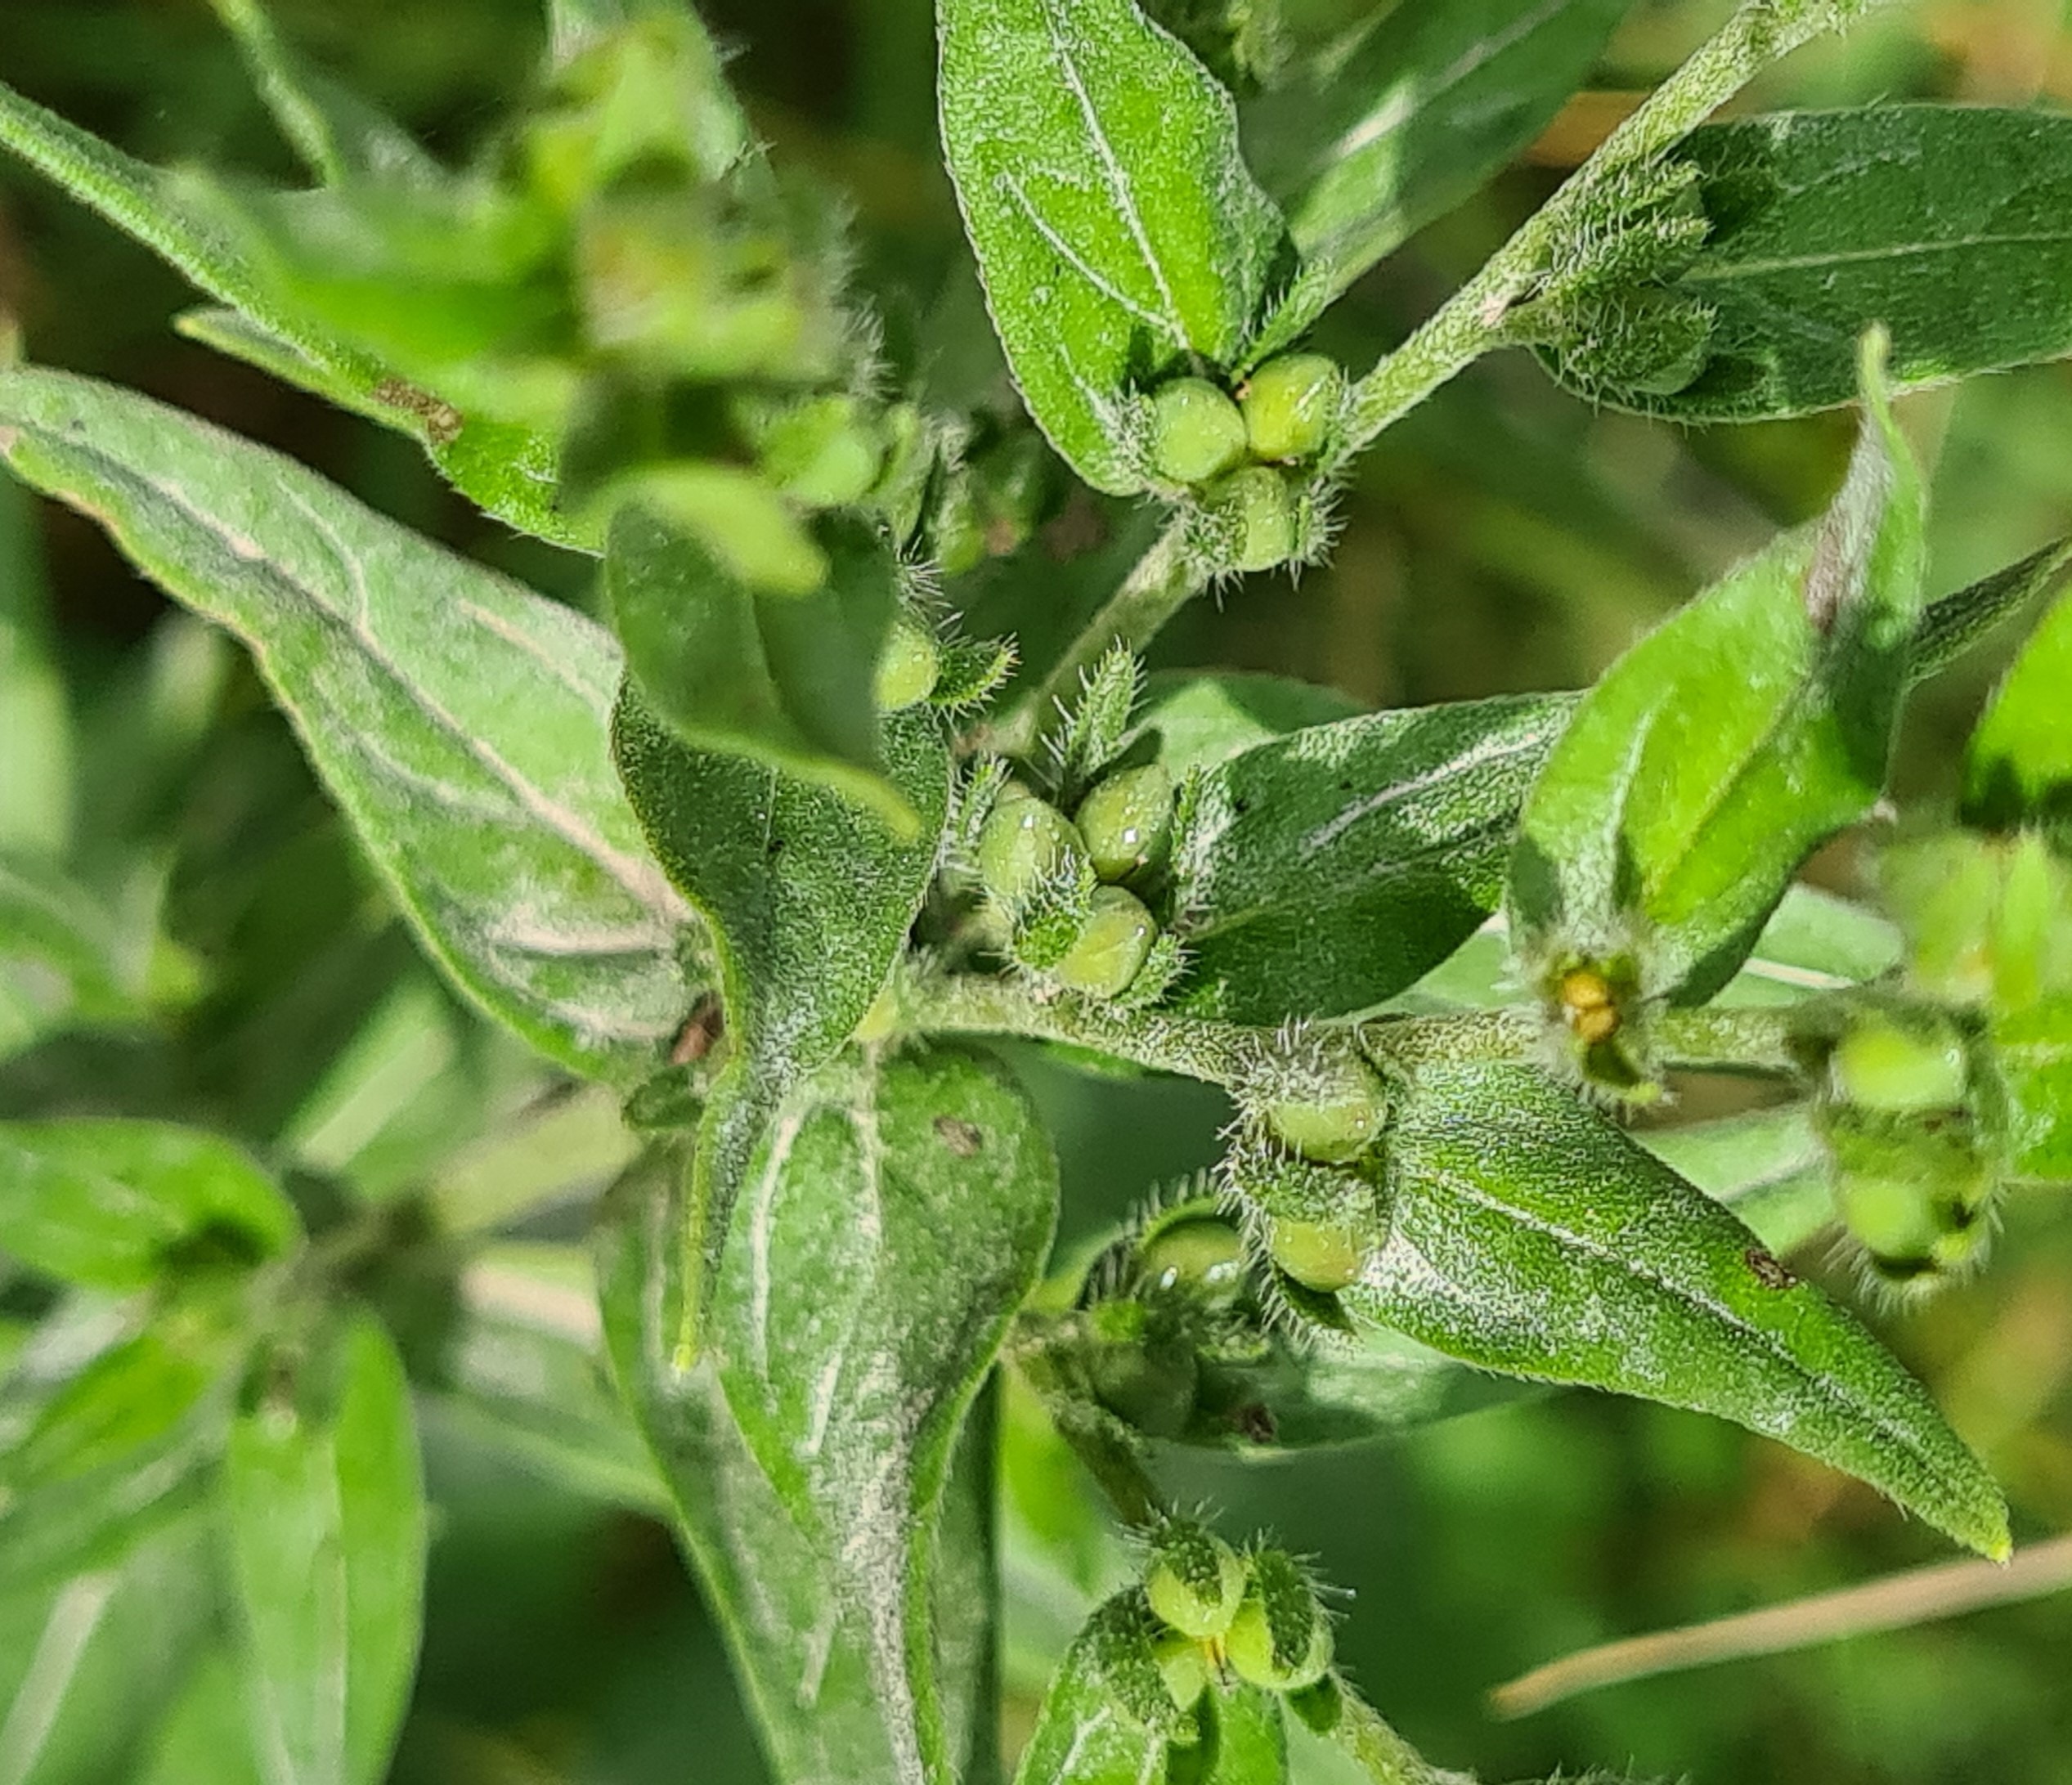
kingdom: Plantae
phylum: Tracheophyta
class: Magnoliopsida
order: Boraginales
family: Boraginaceae
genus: Lithospermum
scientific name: Lithospermum officinale
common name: Læge-stenfrø
